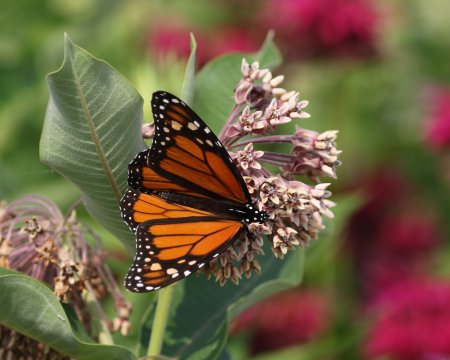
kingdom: Animalia
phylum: Arthropoda
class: Insecta
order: Lepidoptera
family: Nymphalidae
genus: Danaus
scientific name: Danaus plexippus
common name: Monarch
